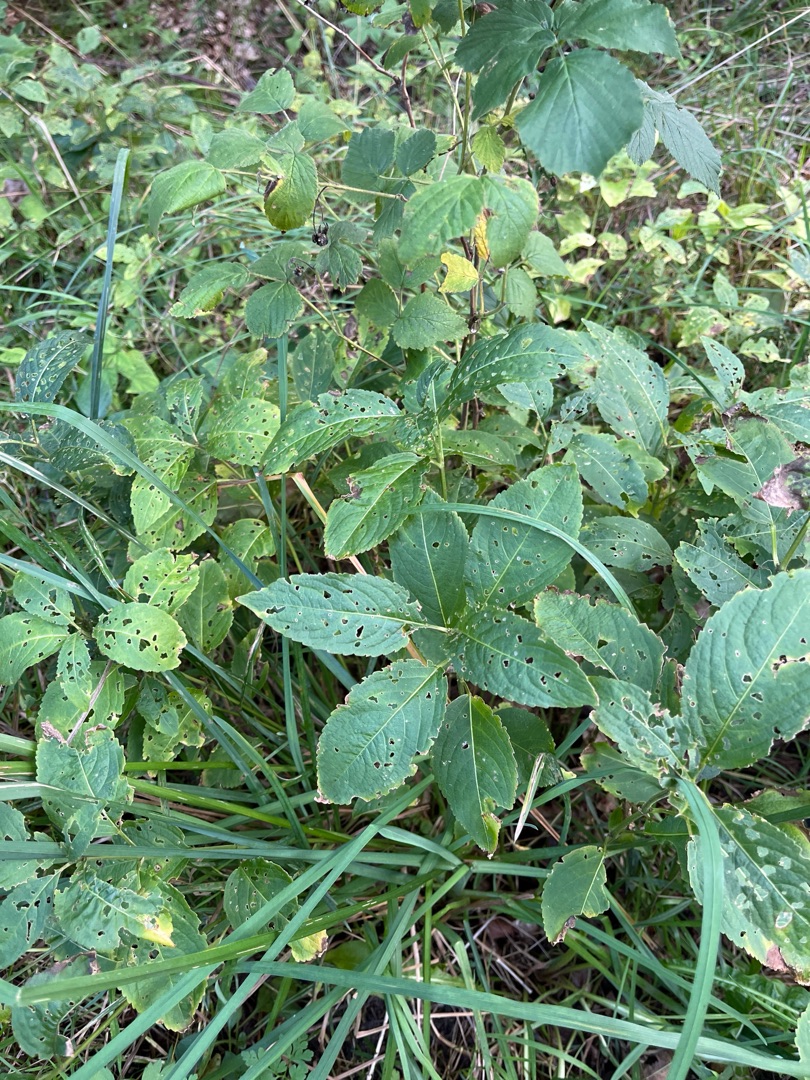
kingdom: Plantae
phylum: Tracheophyta
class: Magnoliopsida
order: Malpighiales
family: Euphorbiaceae
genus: Mercurialis
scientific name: Mercurialis perennis
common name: Almindelig bingelurt
